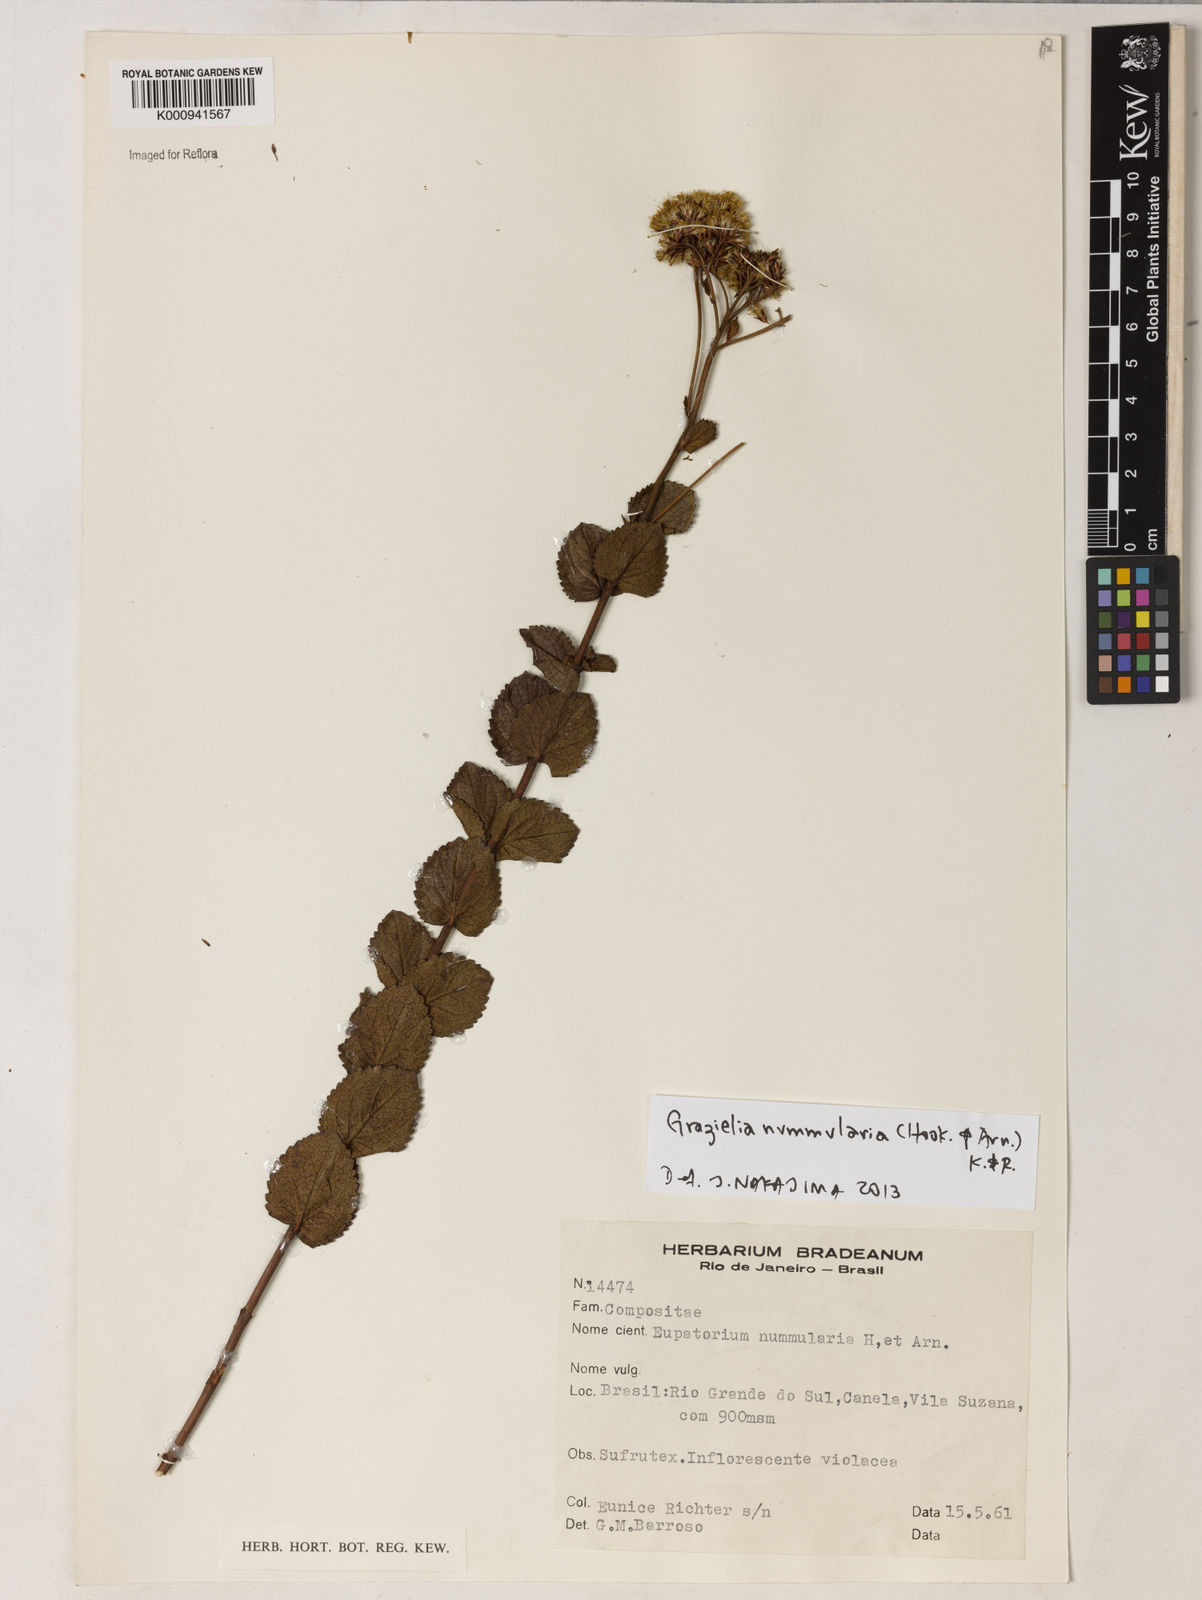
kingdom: Plantae
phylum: Tracheophyta
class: Magnoliopsida
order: Asterales
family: Asteraceae
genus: Grazielia
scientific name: Grazielia nummularia
